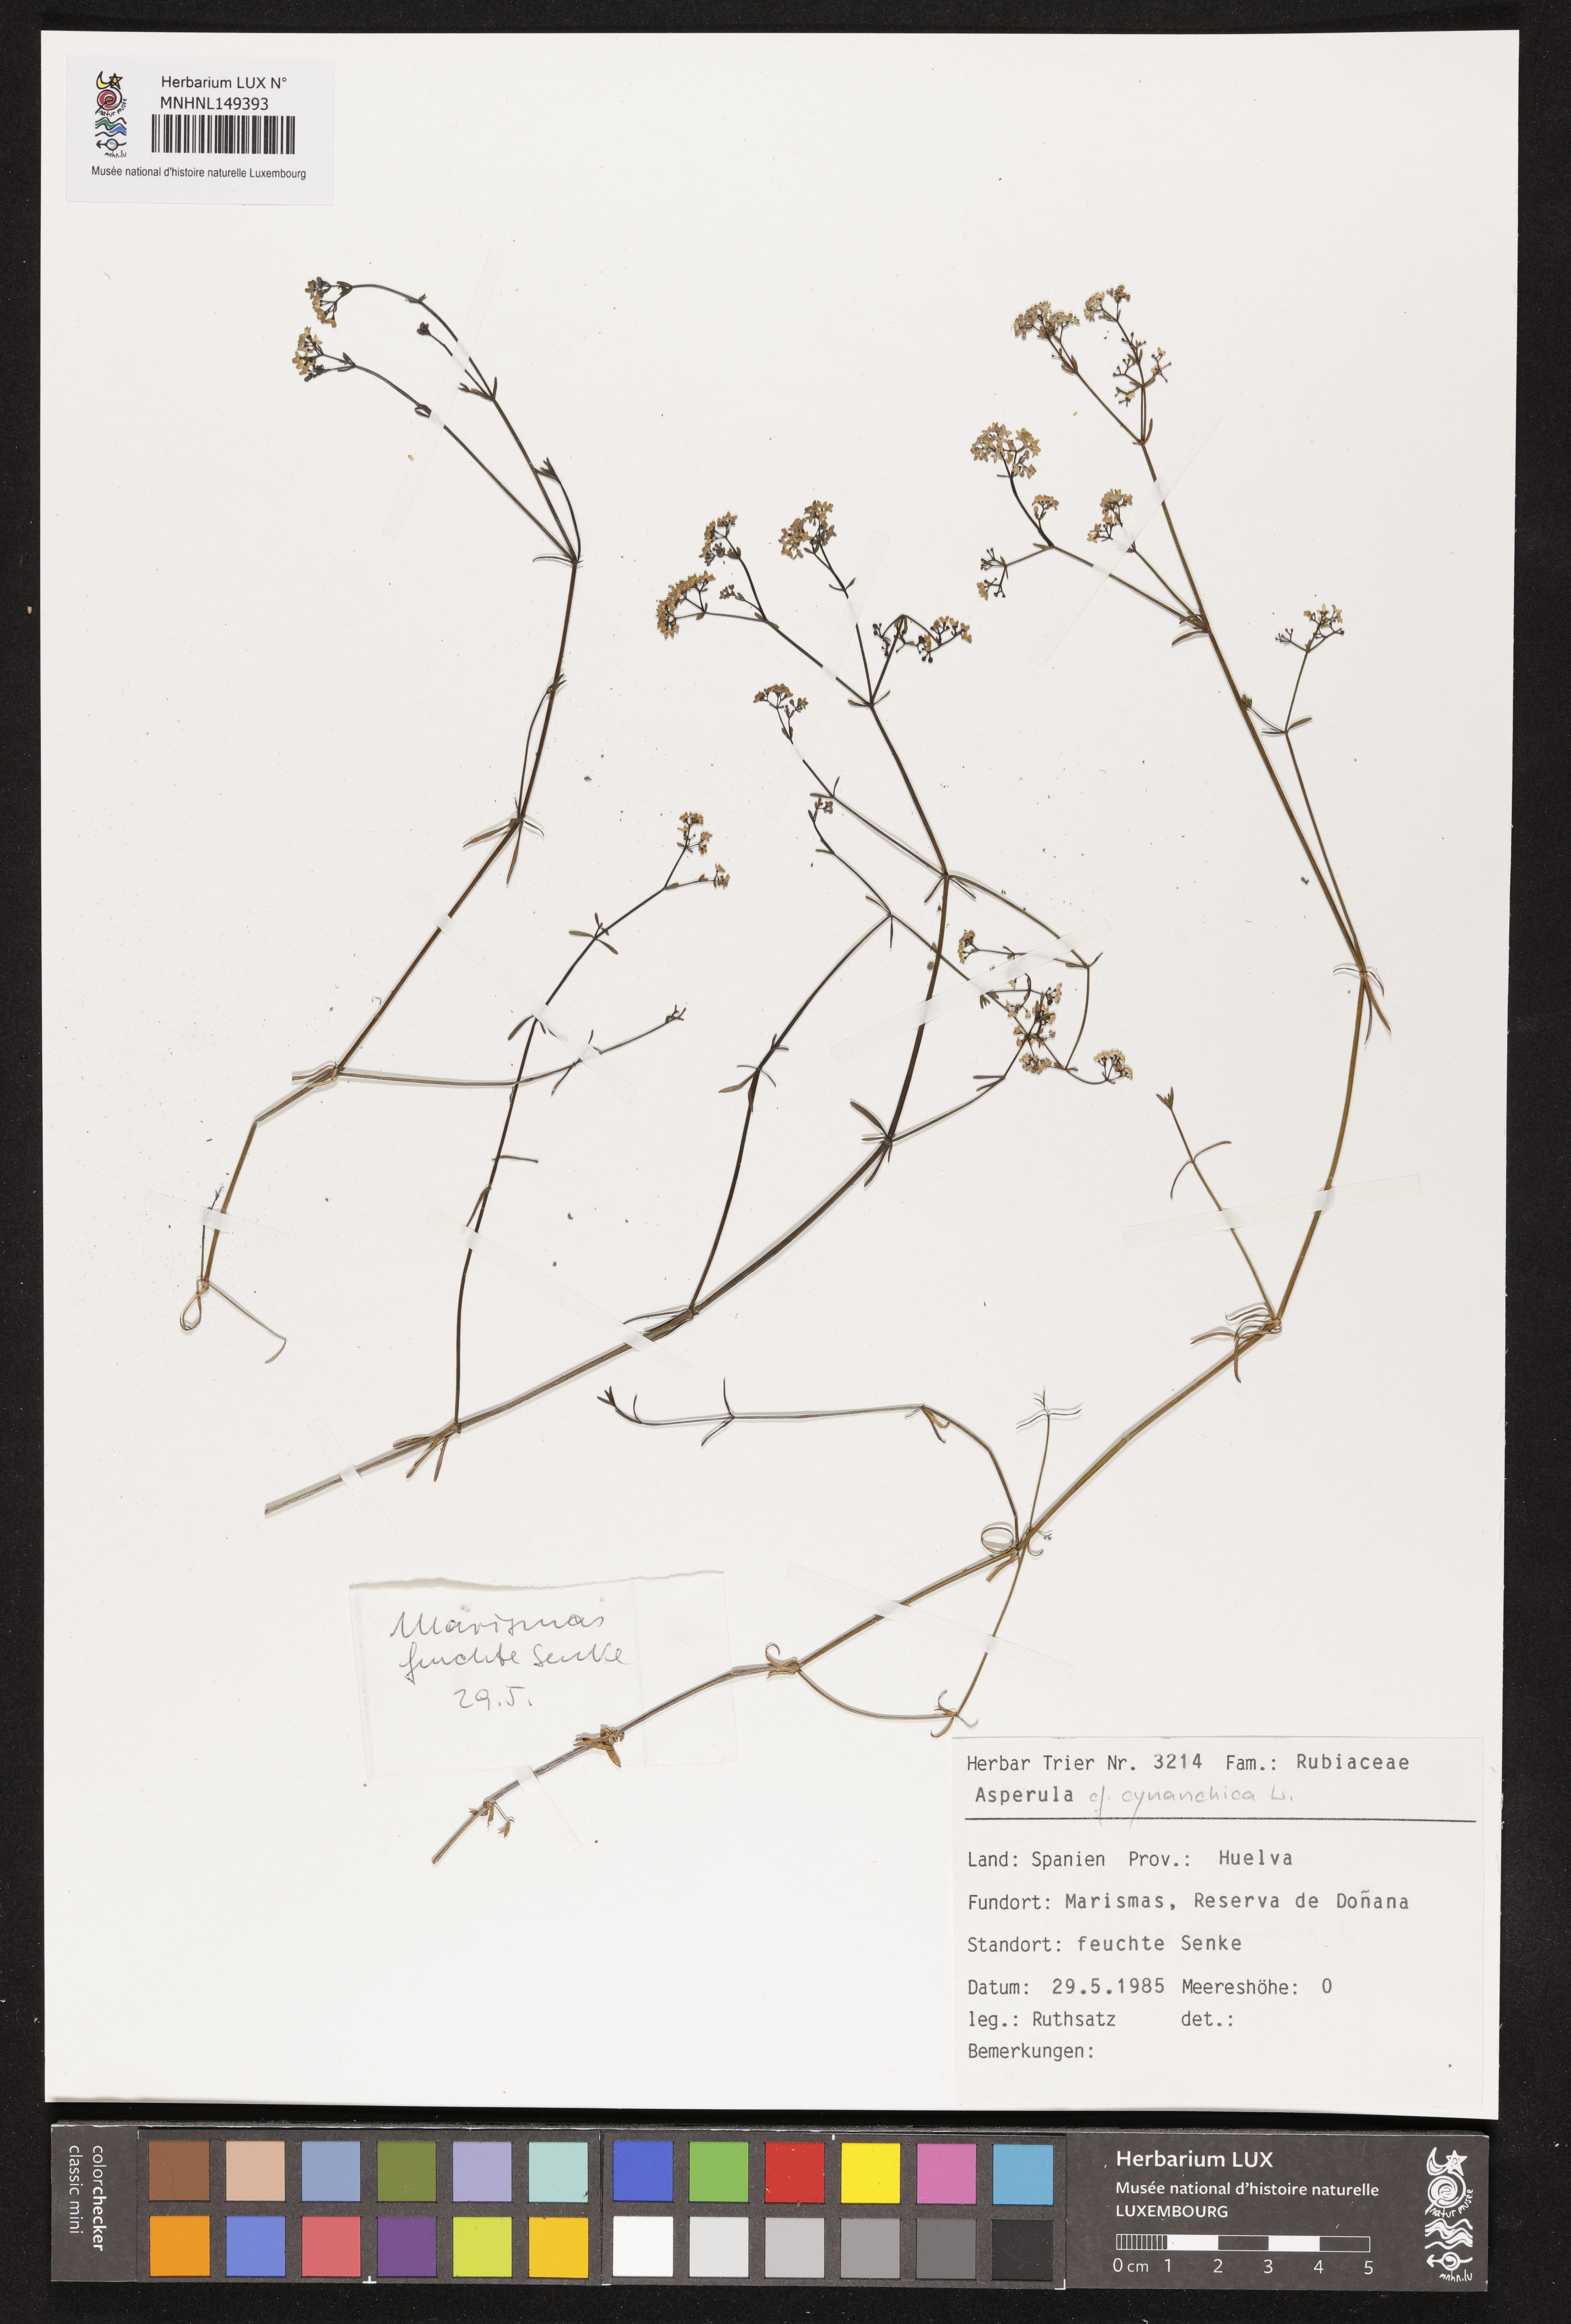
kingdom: Plantae
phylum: Tracheophyta
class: Magnoliopsida
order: Gentianales
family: Rubiaceae
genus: Cynanchica
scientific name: Cynanchica pyrenaica
